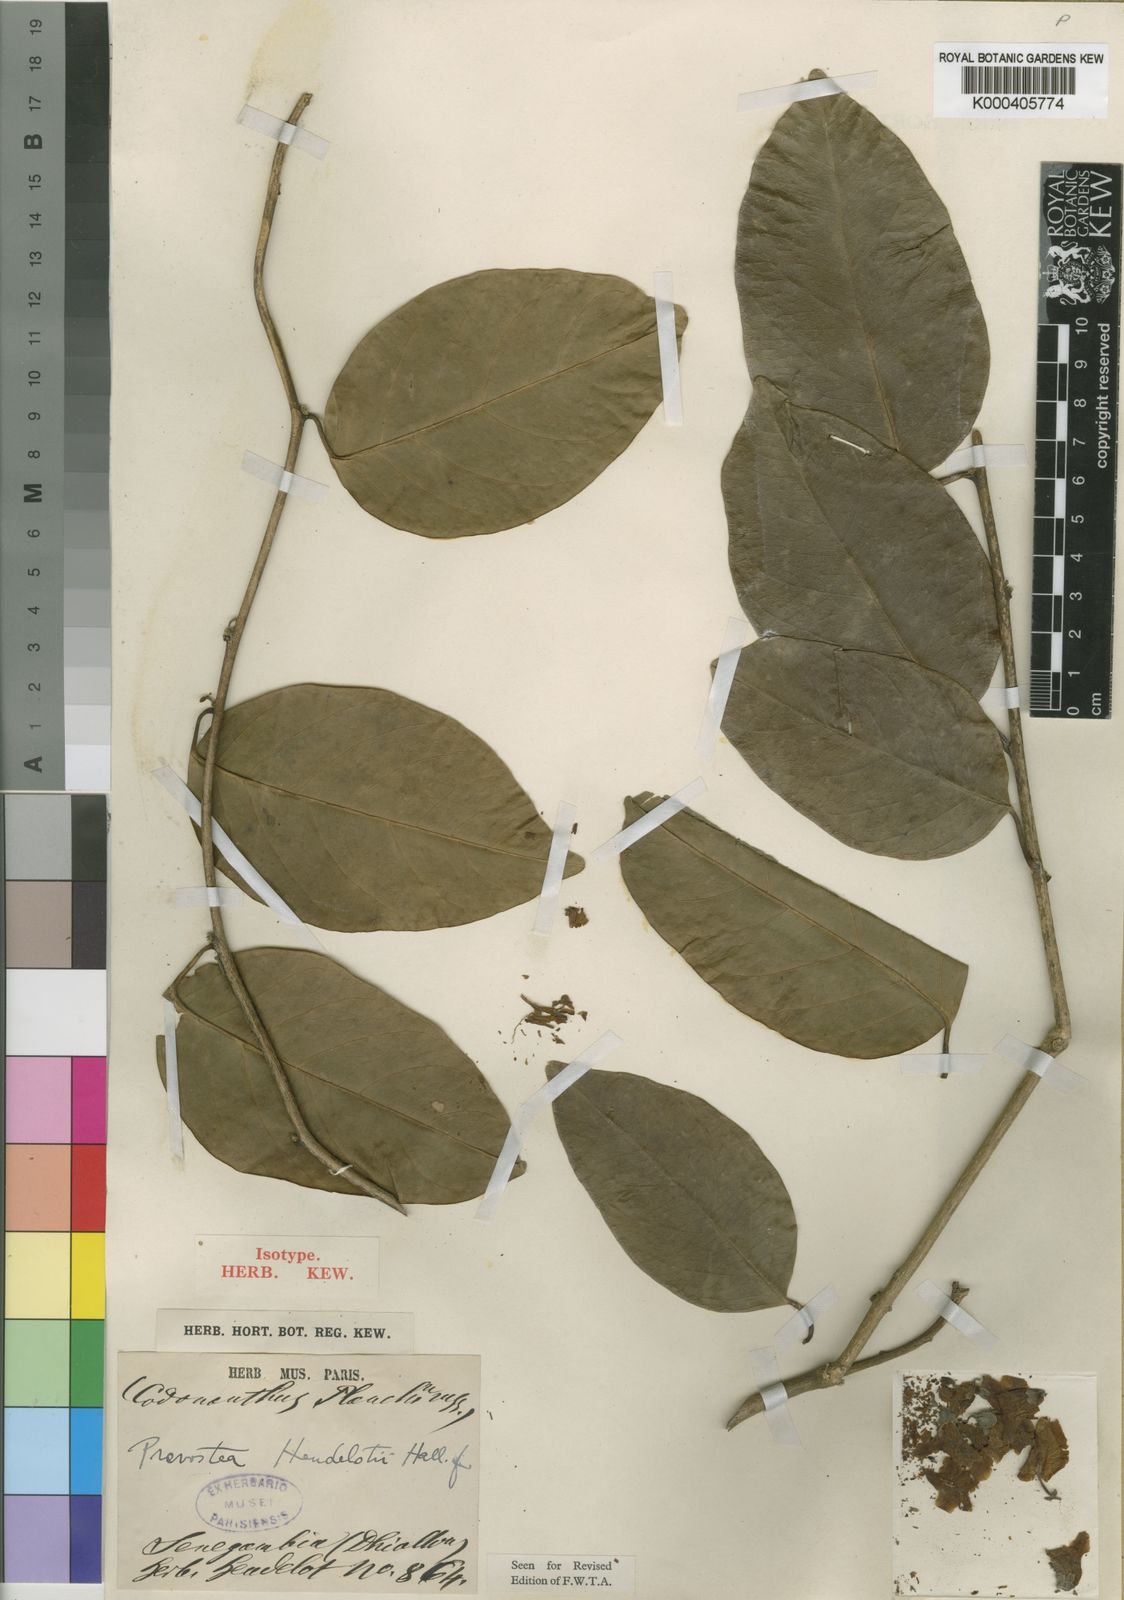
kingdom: Plantae
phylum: Tracheophyta
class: Magnoliopsida
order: Solanales
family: Convolvulaceae
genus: Calycobolus
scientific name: Calycobolus heudelotii
